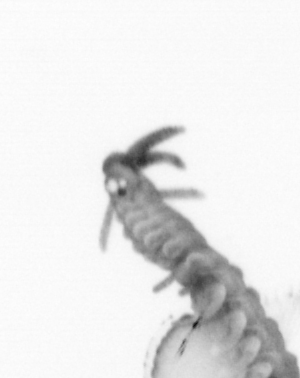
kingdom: Animalia
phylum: Annelida
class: Polychaeta
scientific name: Polychaeta
